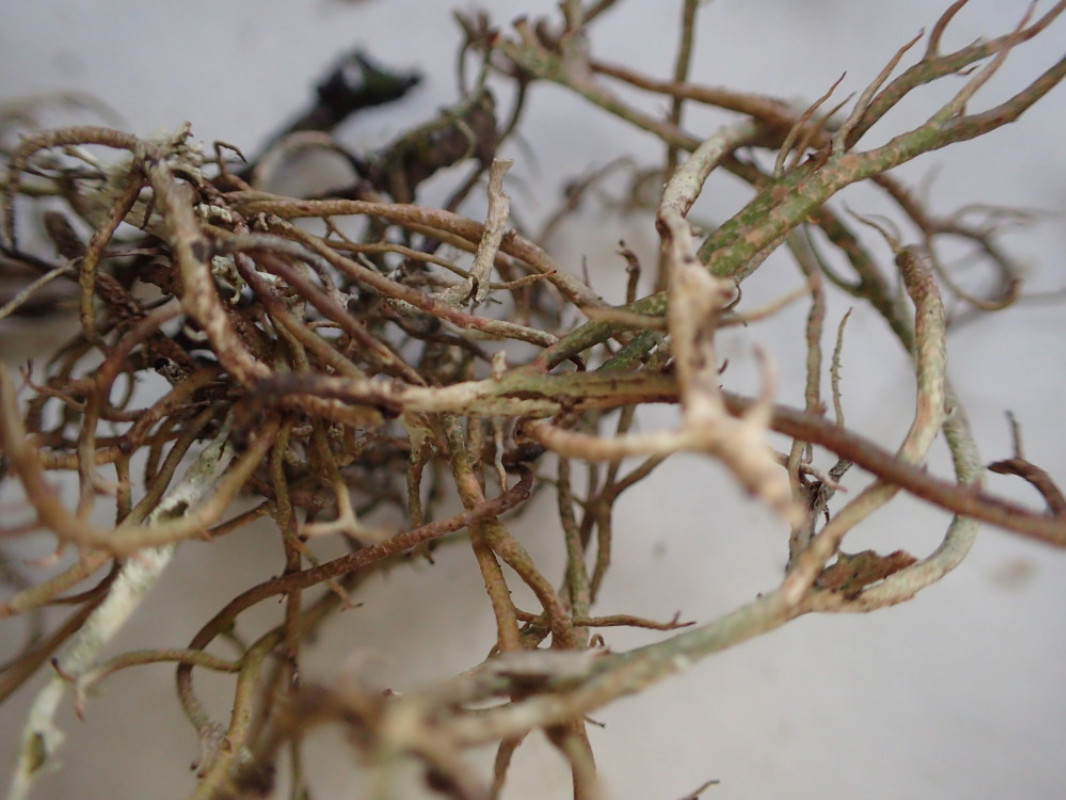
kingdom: Fungi
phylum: Ascomycota
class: Lecanoromycetes
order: Lecanorales
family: Cladoniaceae
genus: Cladonia
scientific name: Cladonia furcata
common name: kløftet bægerlav
